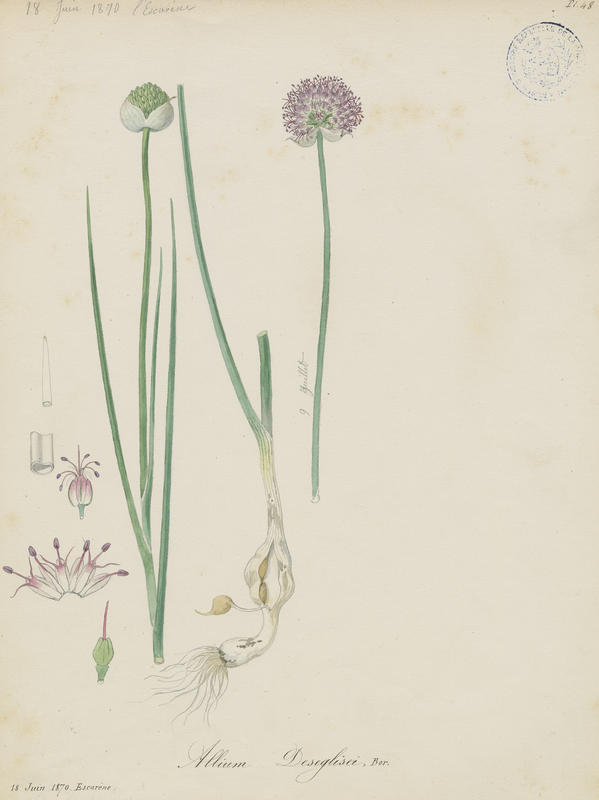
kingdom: Plantae
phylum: Tracheophyta
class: Liliopsida
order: Asparagales
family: Amaryllidaceae
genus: Allium
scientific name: Allium sphaerocephalon
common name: Round-headed leek
